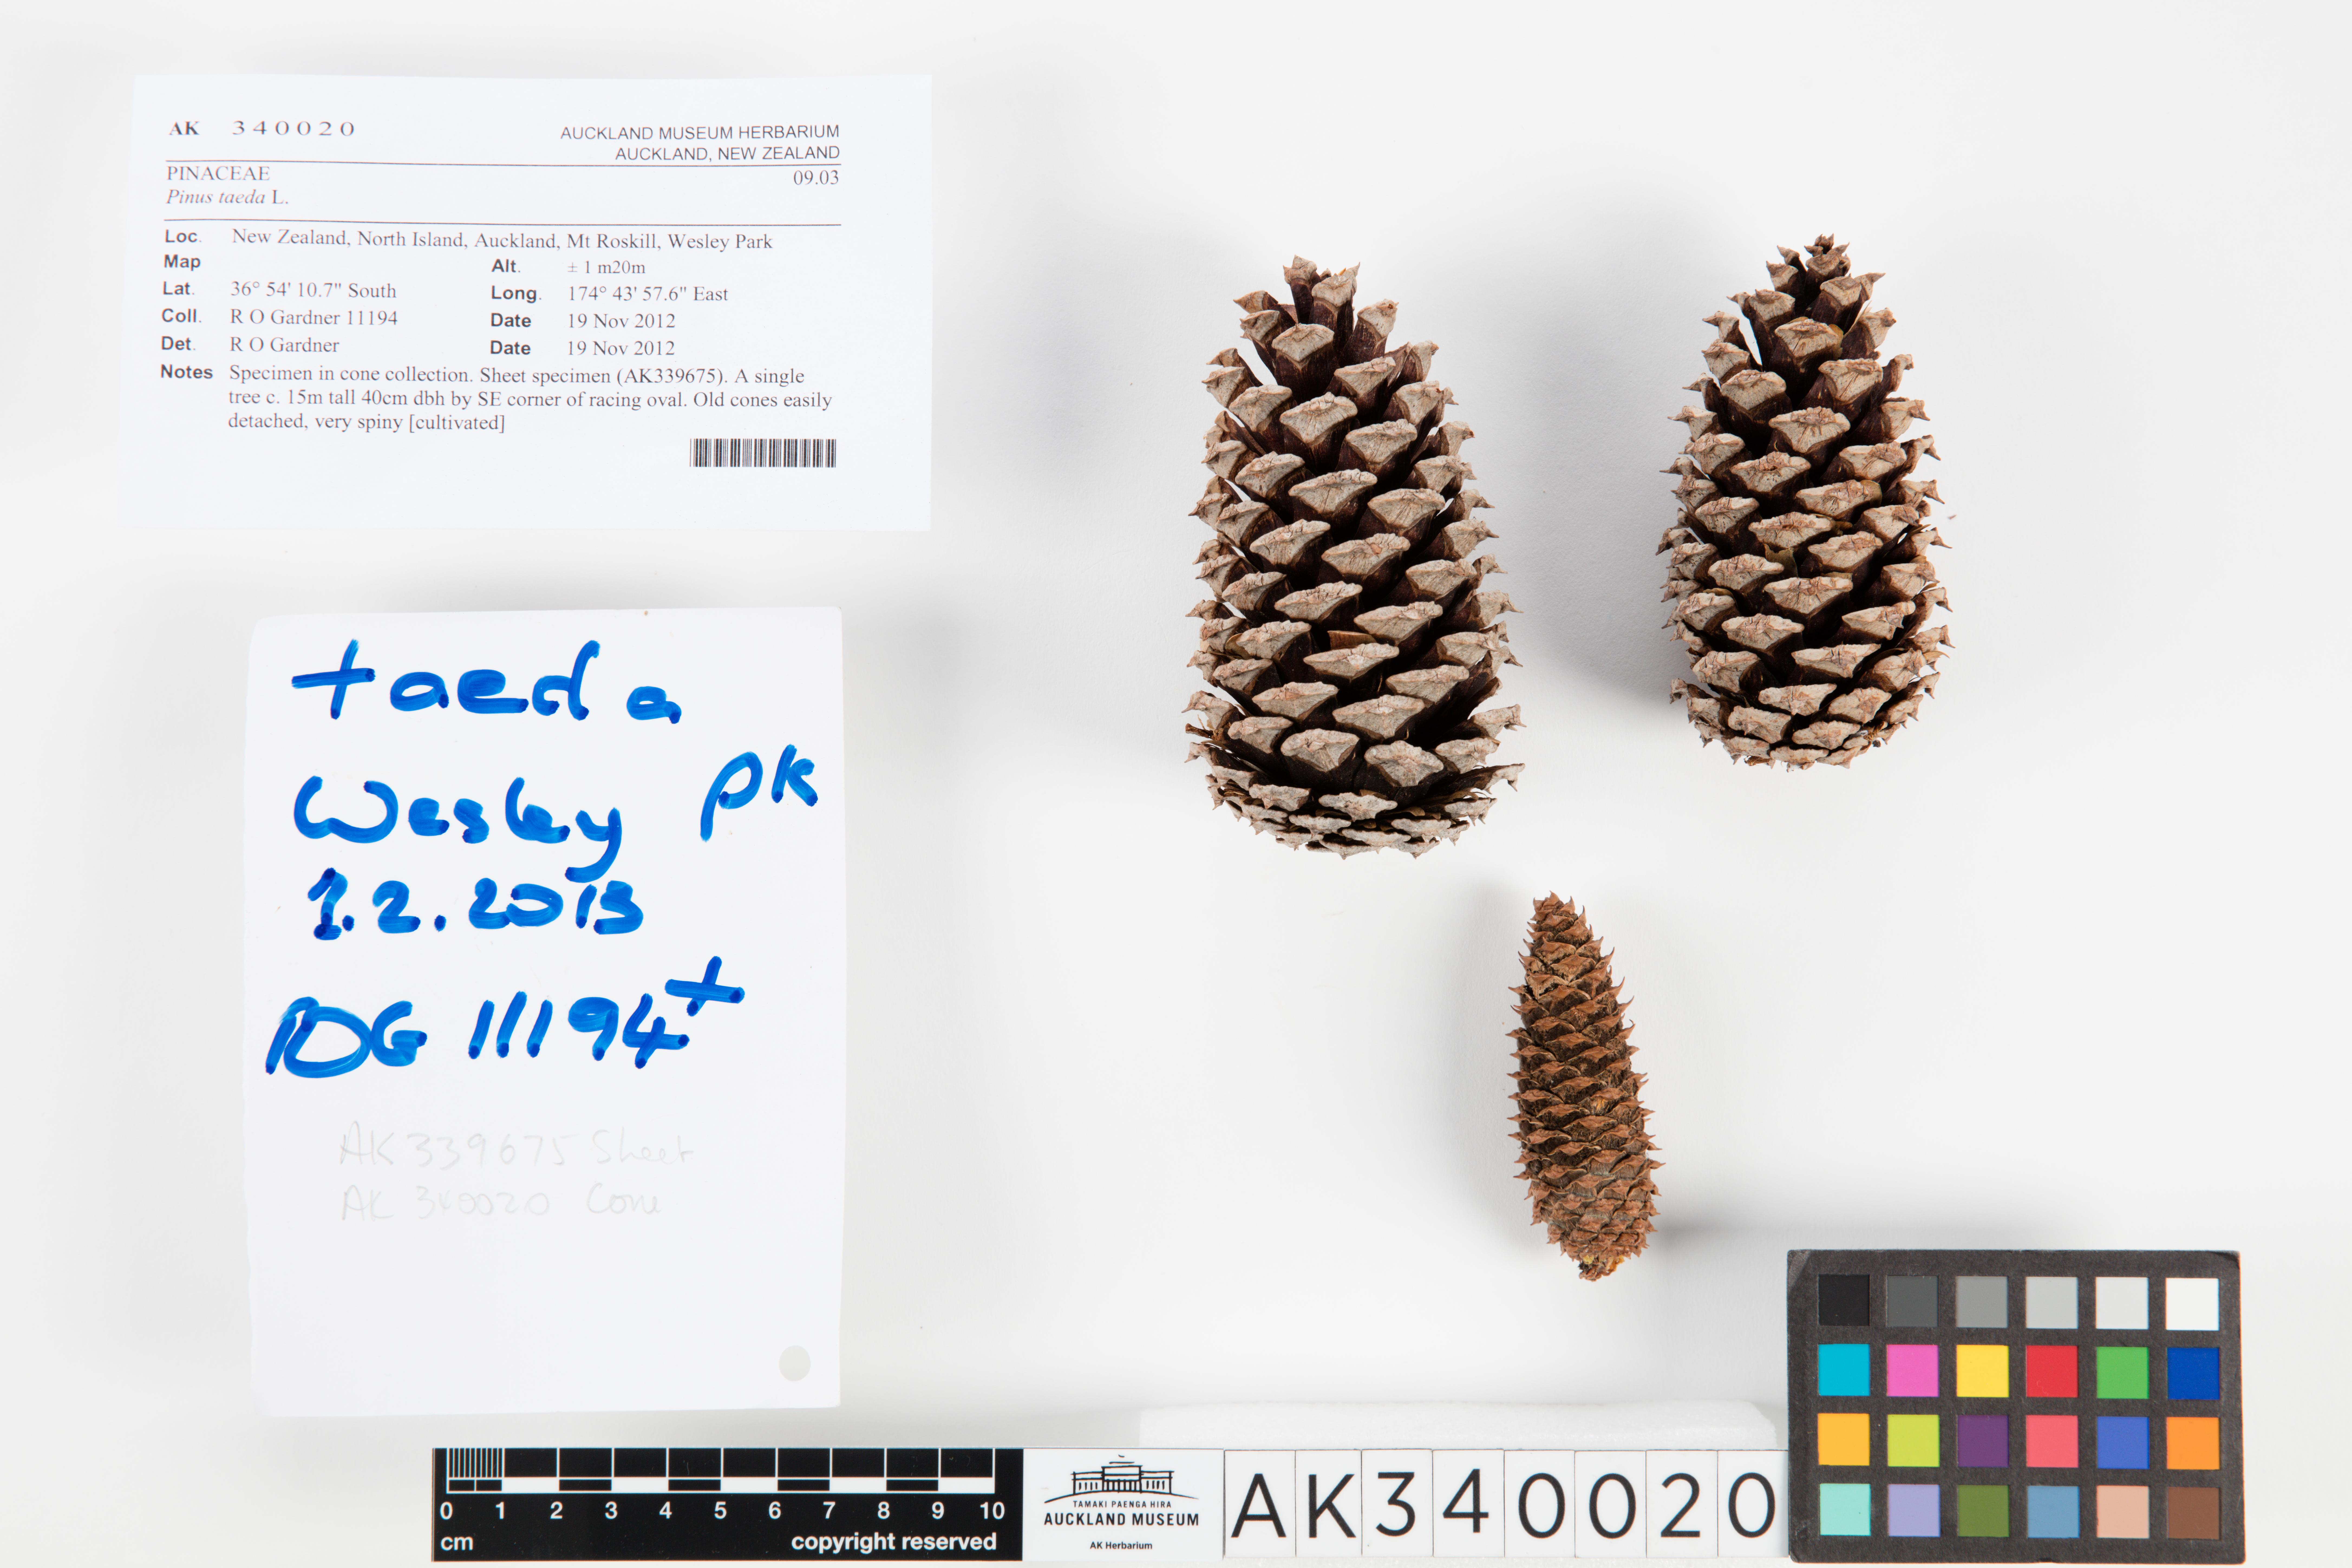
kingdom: Plantae
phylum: Tracheophyta
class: Pinopsida
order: Pinales
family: Pinaceae
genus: Pinus
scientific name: Pinus taeda
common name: Loblolly pine
